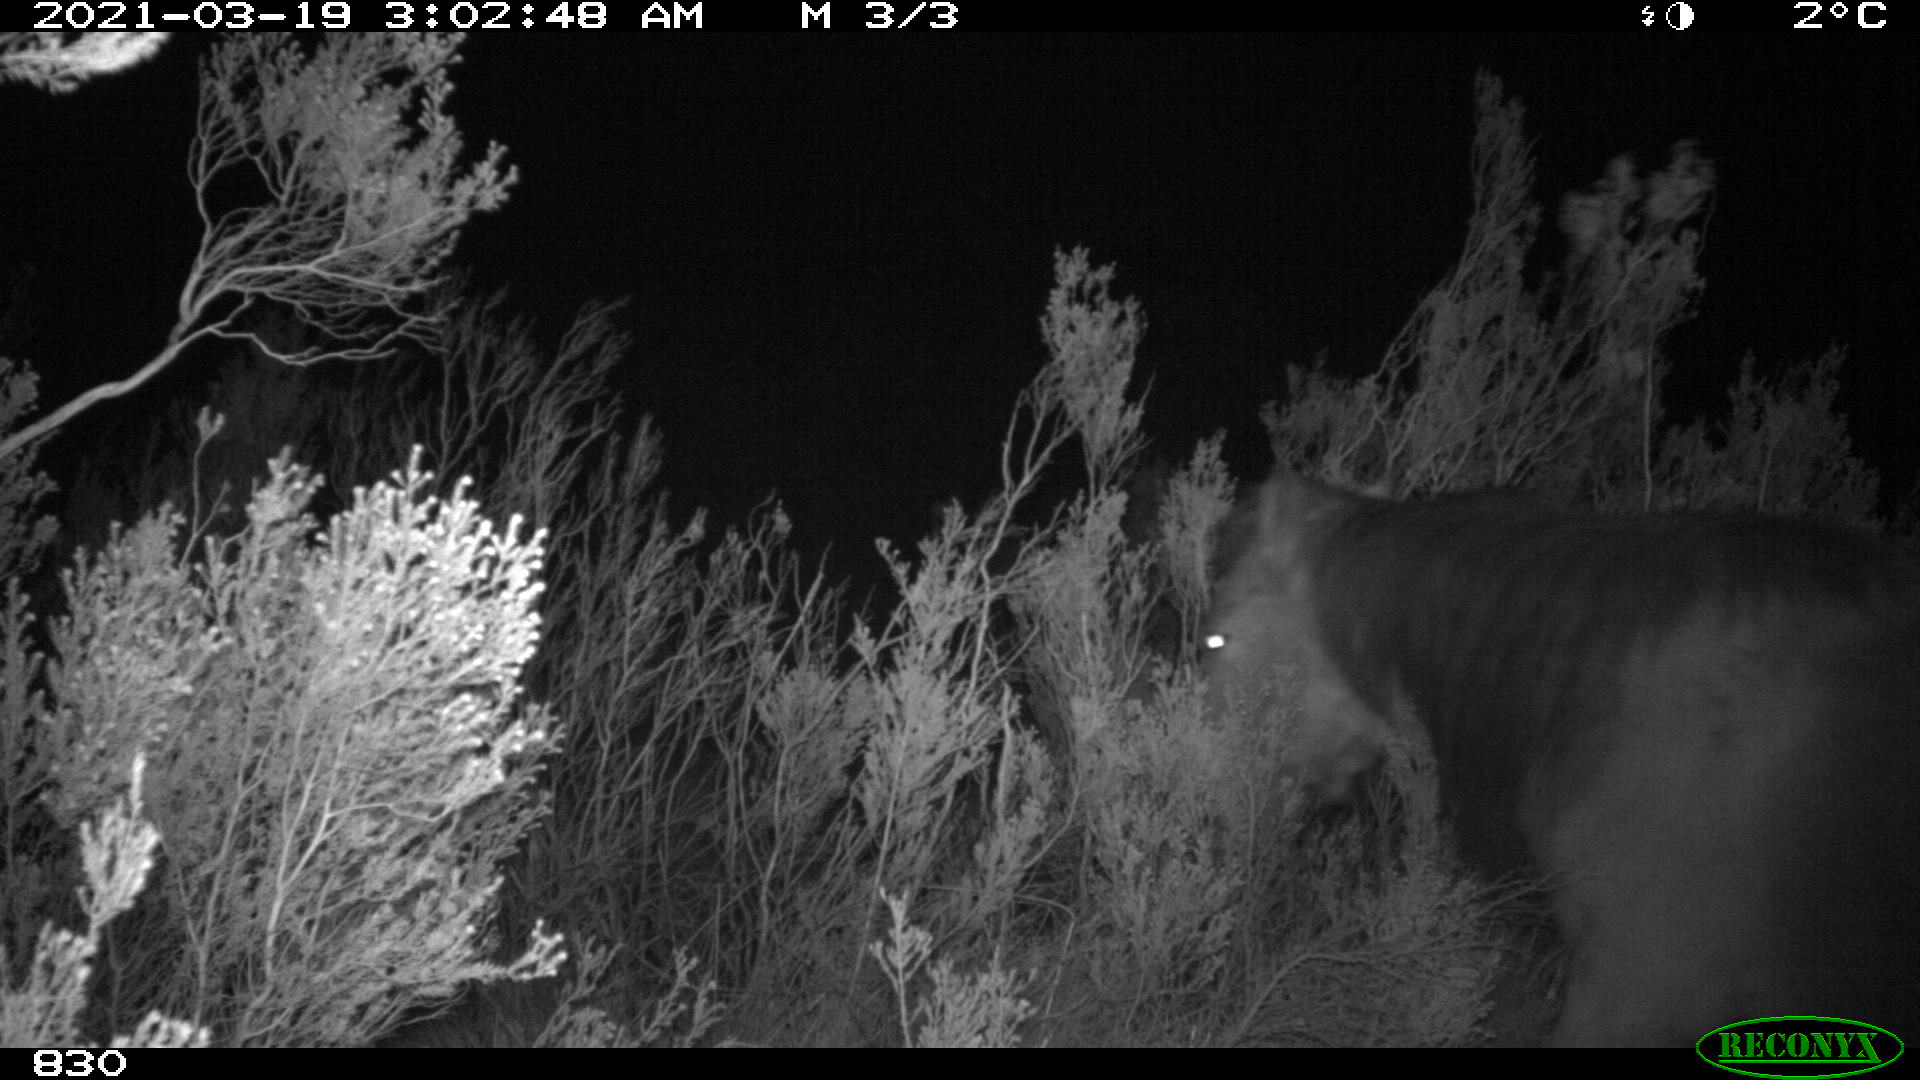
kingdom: Animalia
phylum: Chordata
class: Mammalia
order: Perissodactyla
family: Equidae
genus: Equus
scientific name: Equus caballus
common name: Horse
